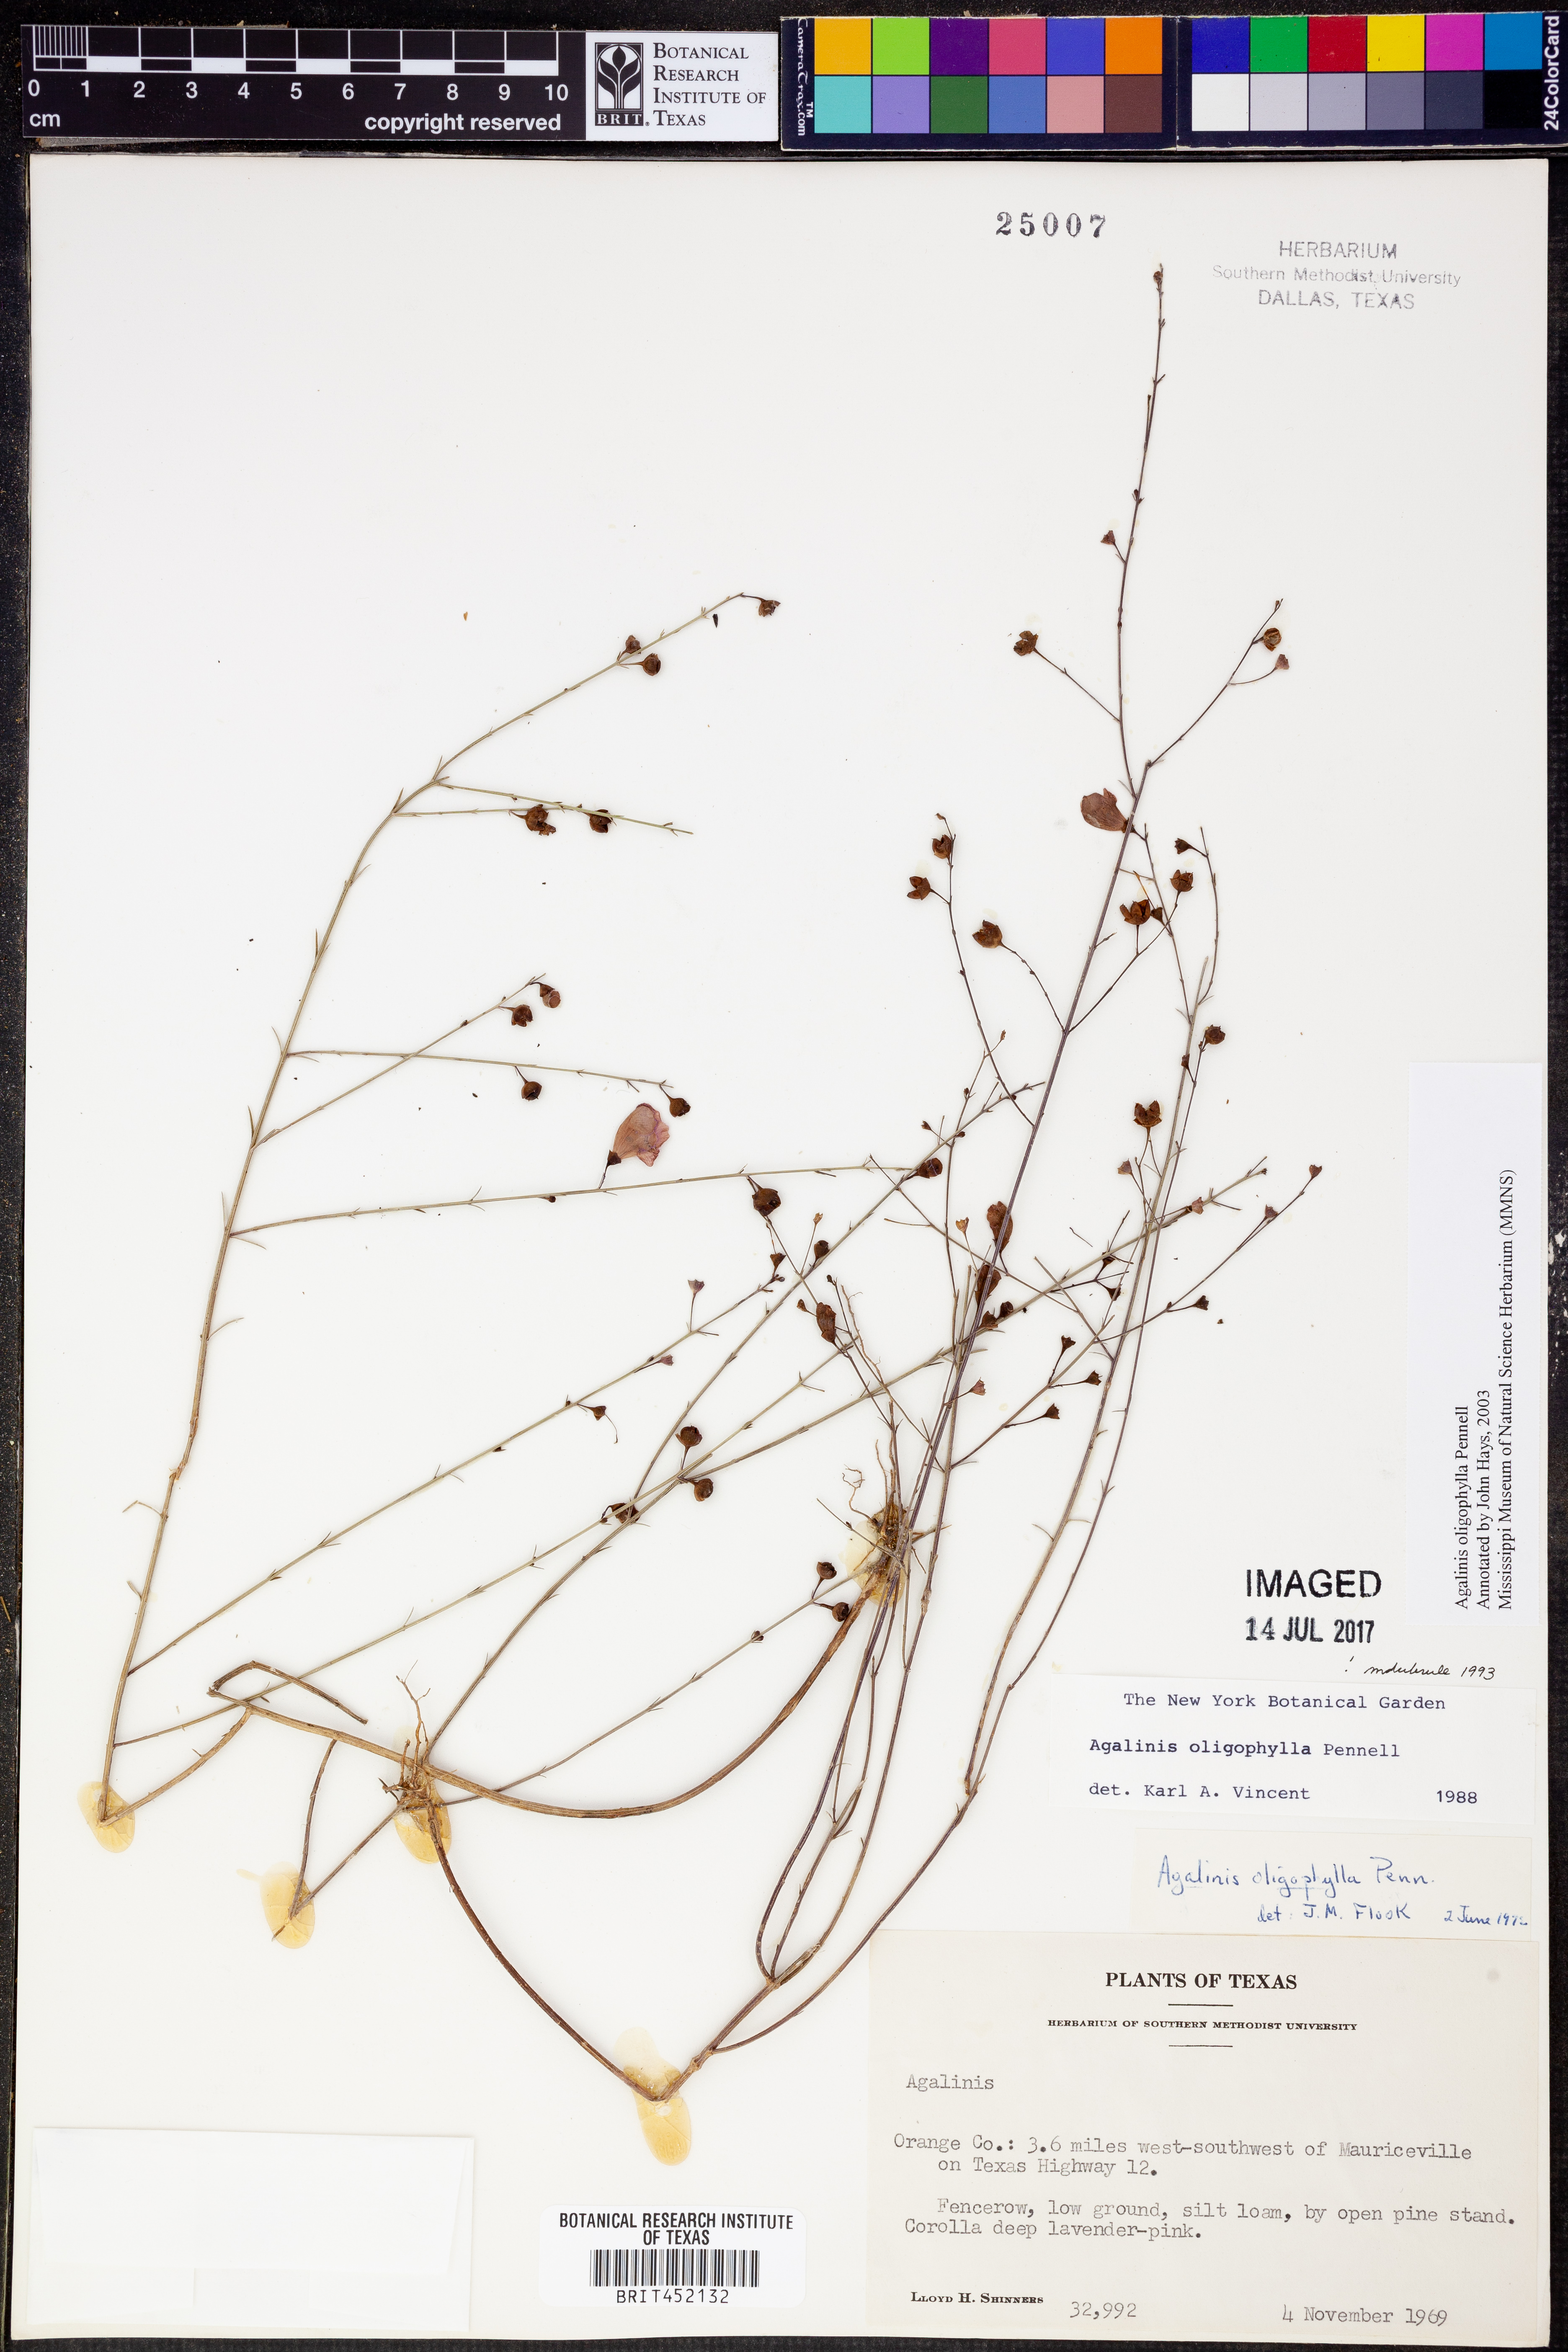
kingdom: Plantae
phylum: Tracheophyta
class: Magnoliopsida
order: Lamiales
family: Orobanchaceae
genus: Agalinis
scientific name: Agalinis oligophylla
